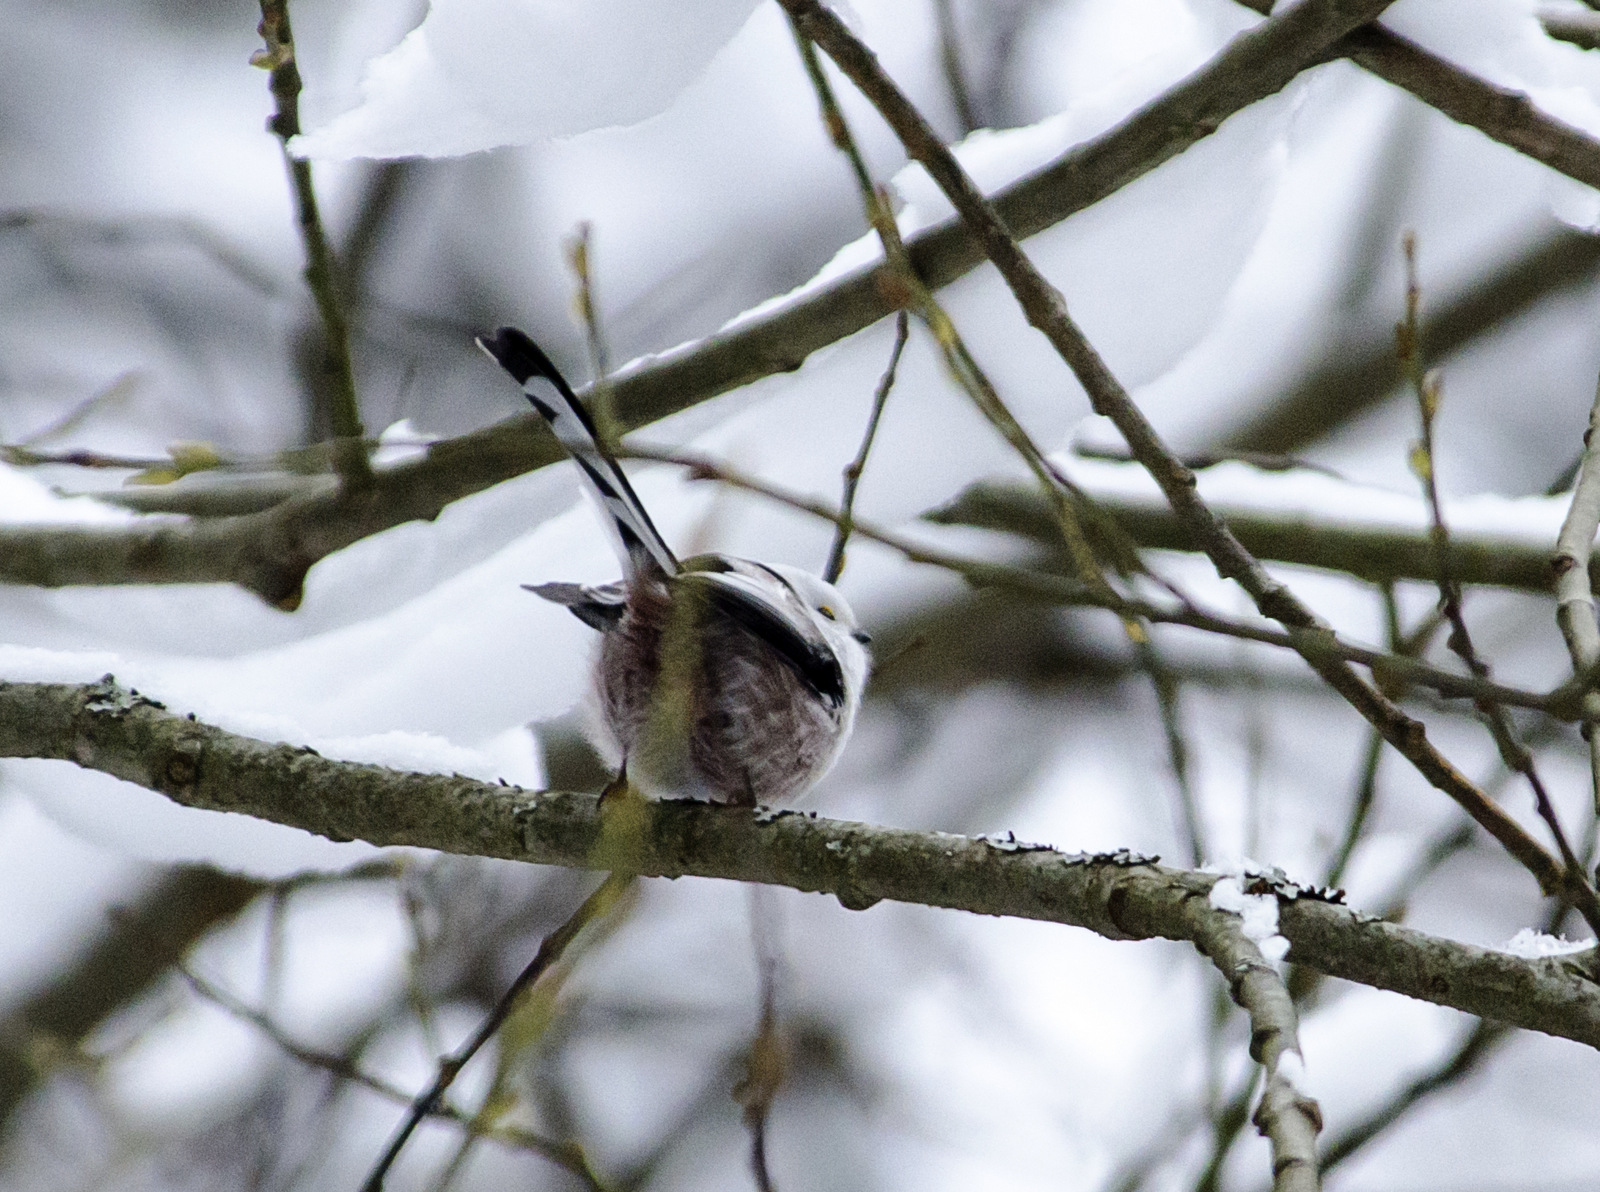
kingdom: Animalia
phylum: Chordata
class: Aves
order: Passeriformes
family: Aegithalidae
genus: Aegithalos
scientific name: Aegithalos caudatus
